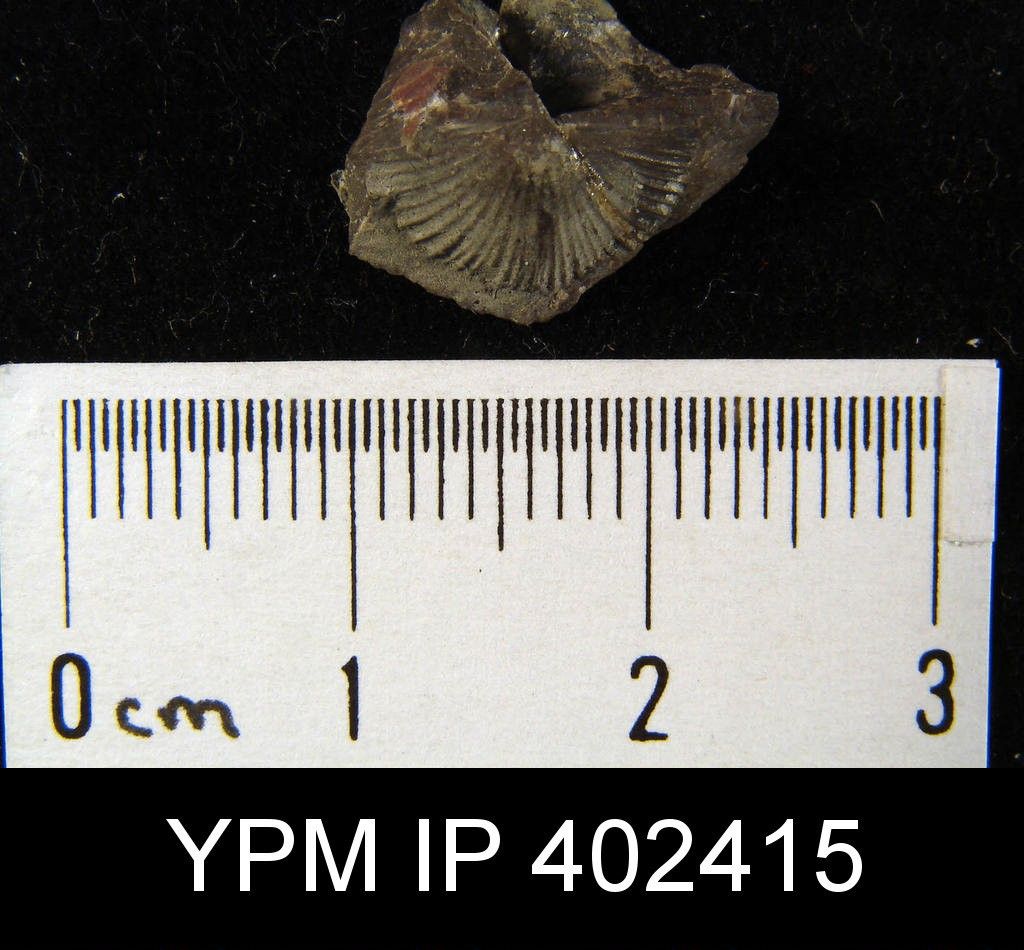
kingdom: Animalia
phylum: Brachiopoda
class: Rhynchonellata
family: Orthidae
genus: Archaeorthis
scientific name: Archaeorthis
